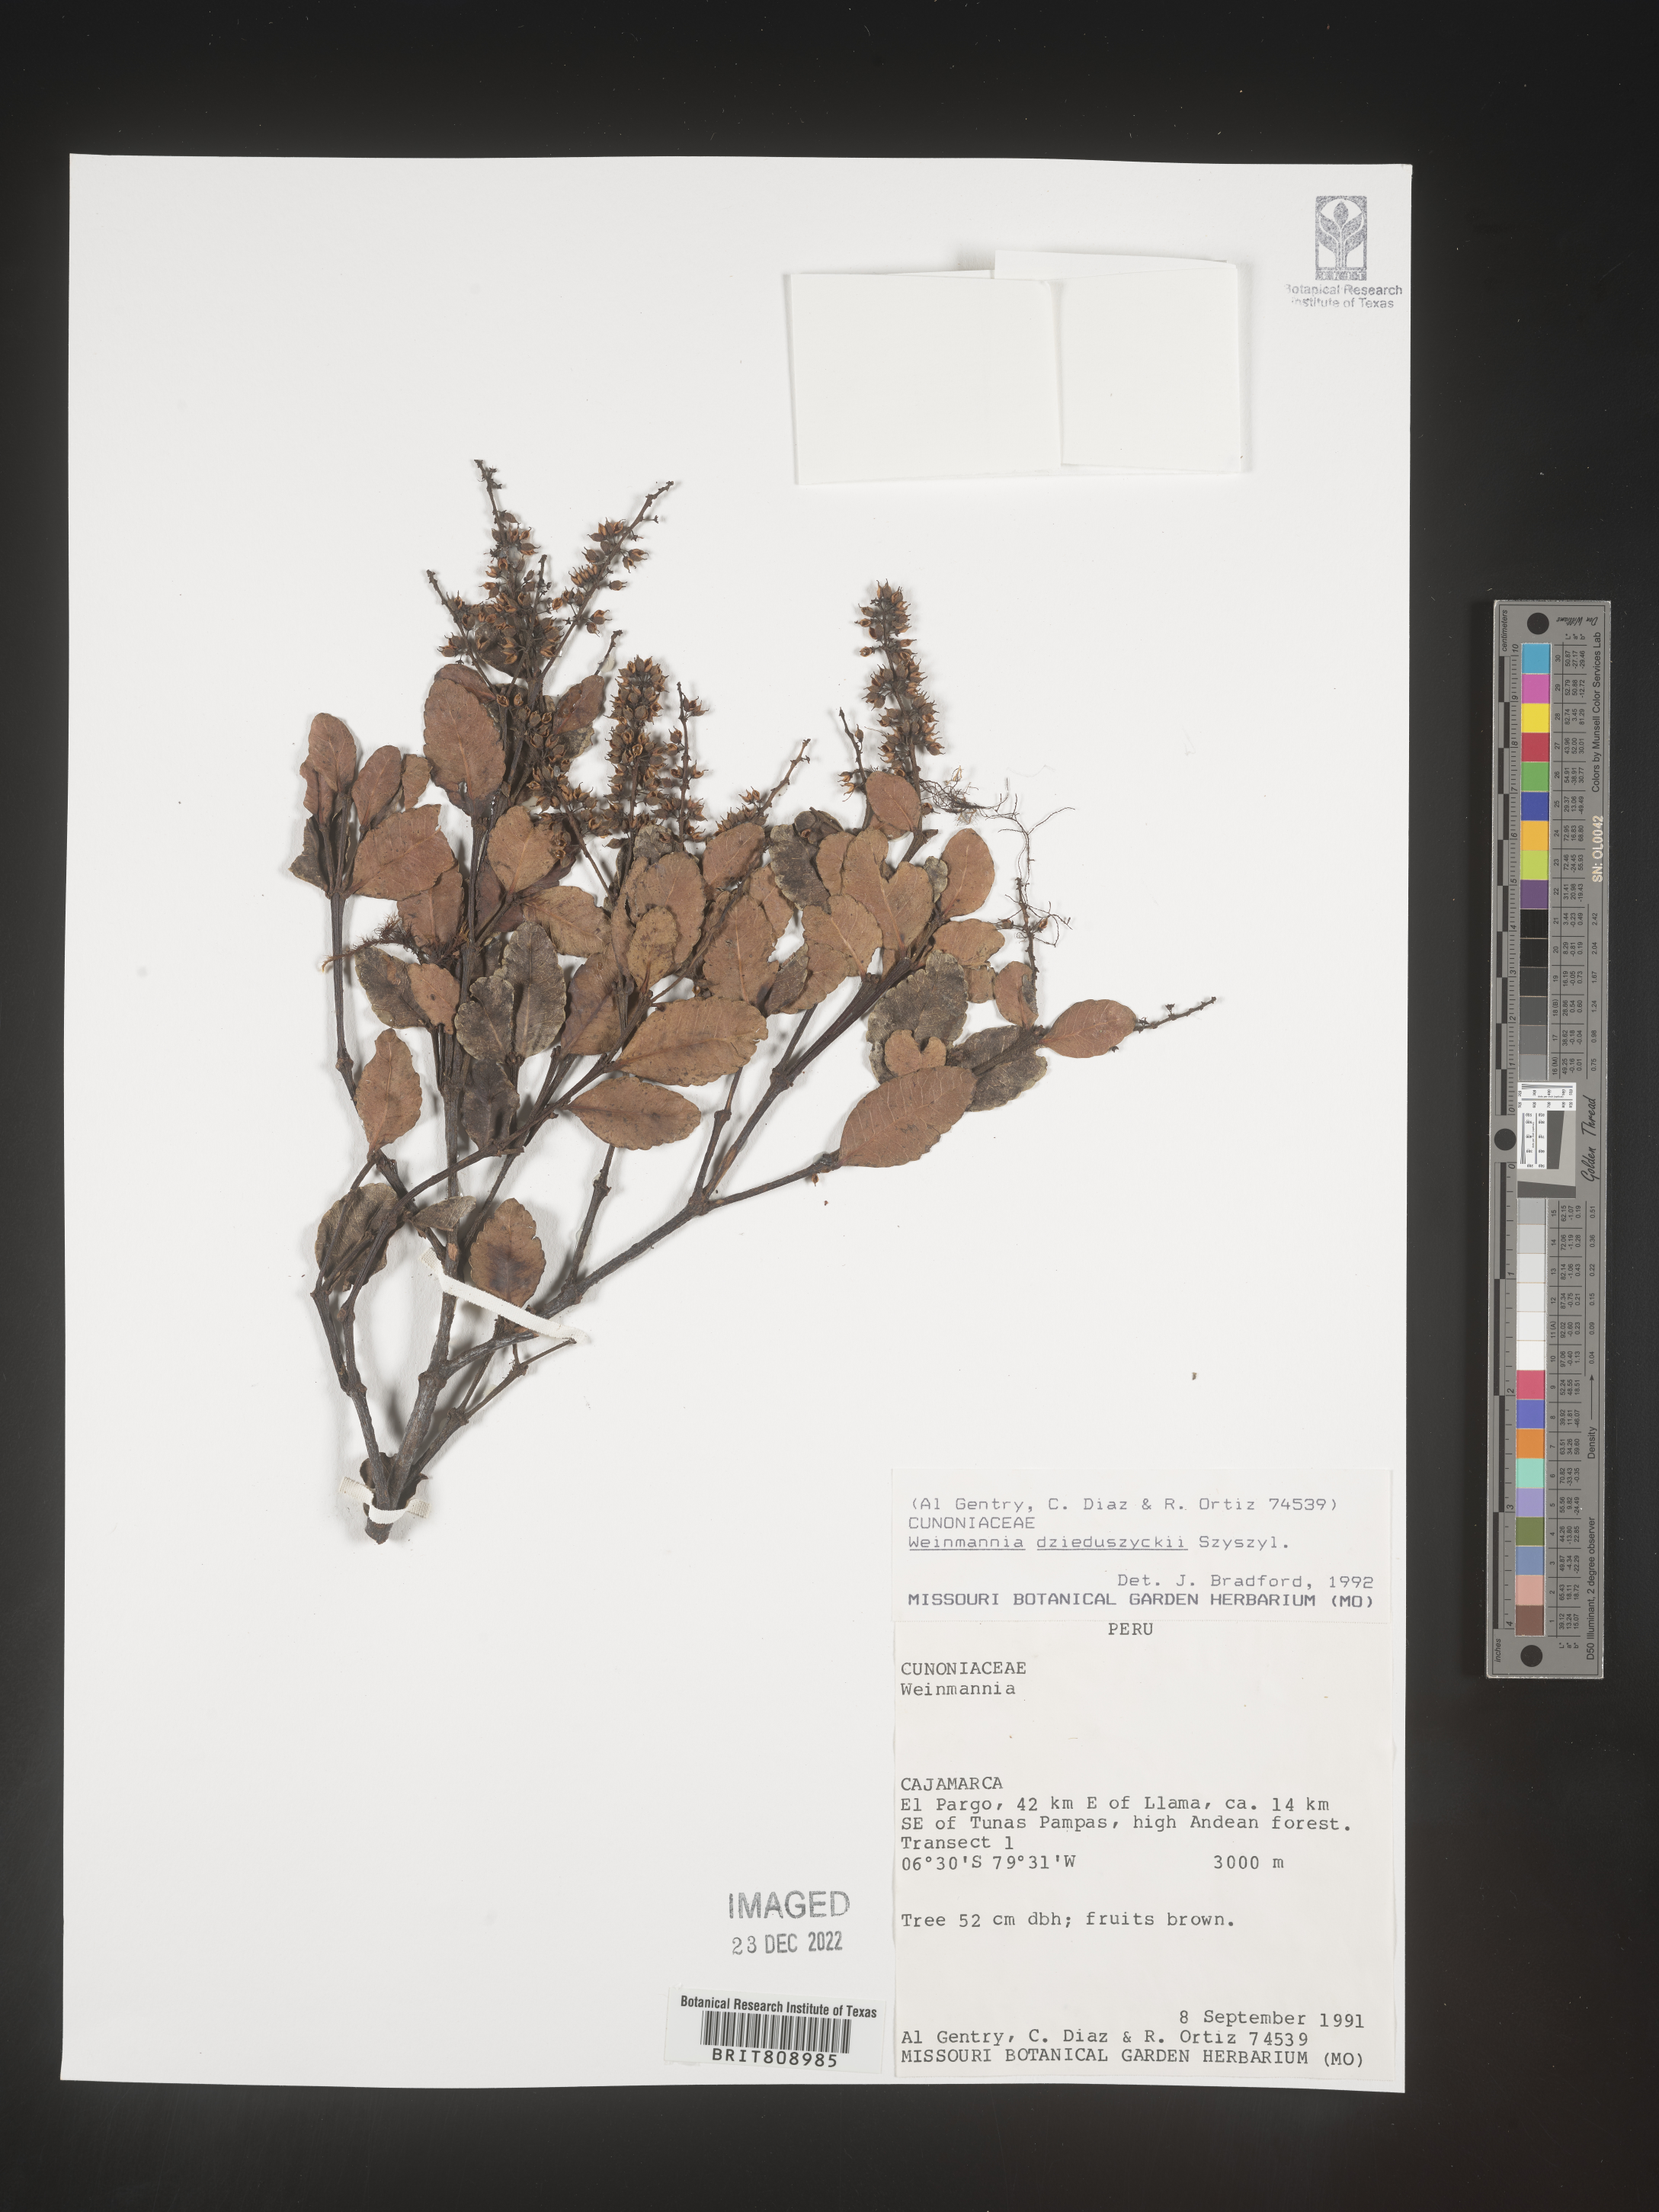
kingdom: Plantae
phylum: Tracheophyta
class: Magnoliopsida
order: Oxalidales
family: Cunoniaceae
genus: Weinmannia
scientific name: Weinmannia
